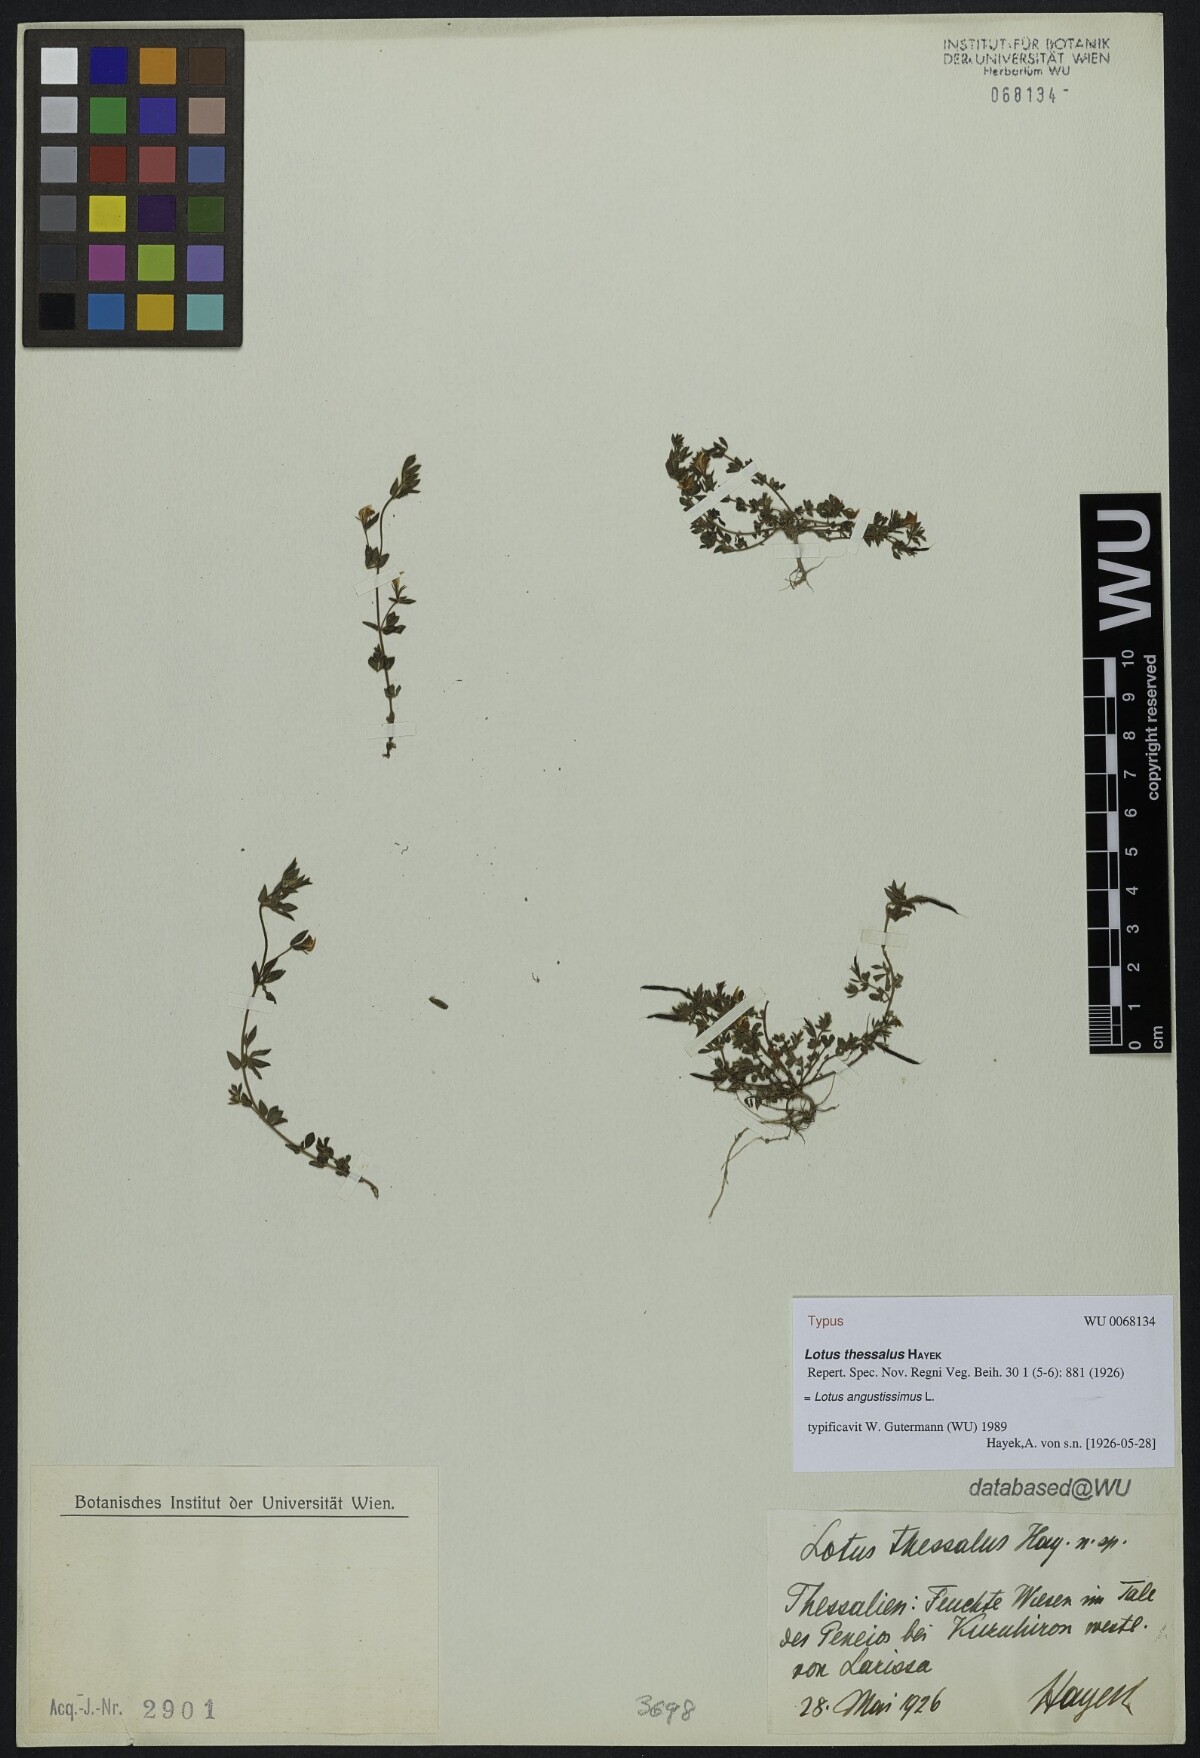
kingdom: Plantae
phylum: Tracheophyta
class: Magnoliopsida
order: Fabales
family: Fabaceae
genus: Lotus
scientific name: Lotus angustissimus
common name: Slender bird's-foot trefoil
